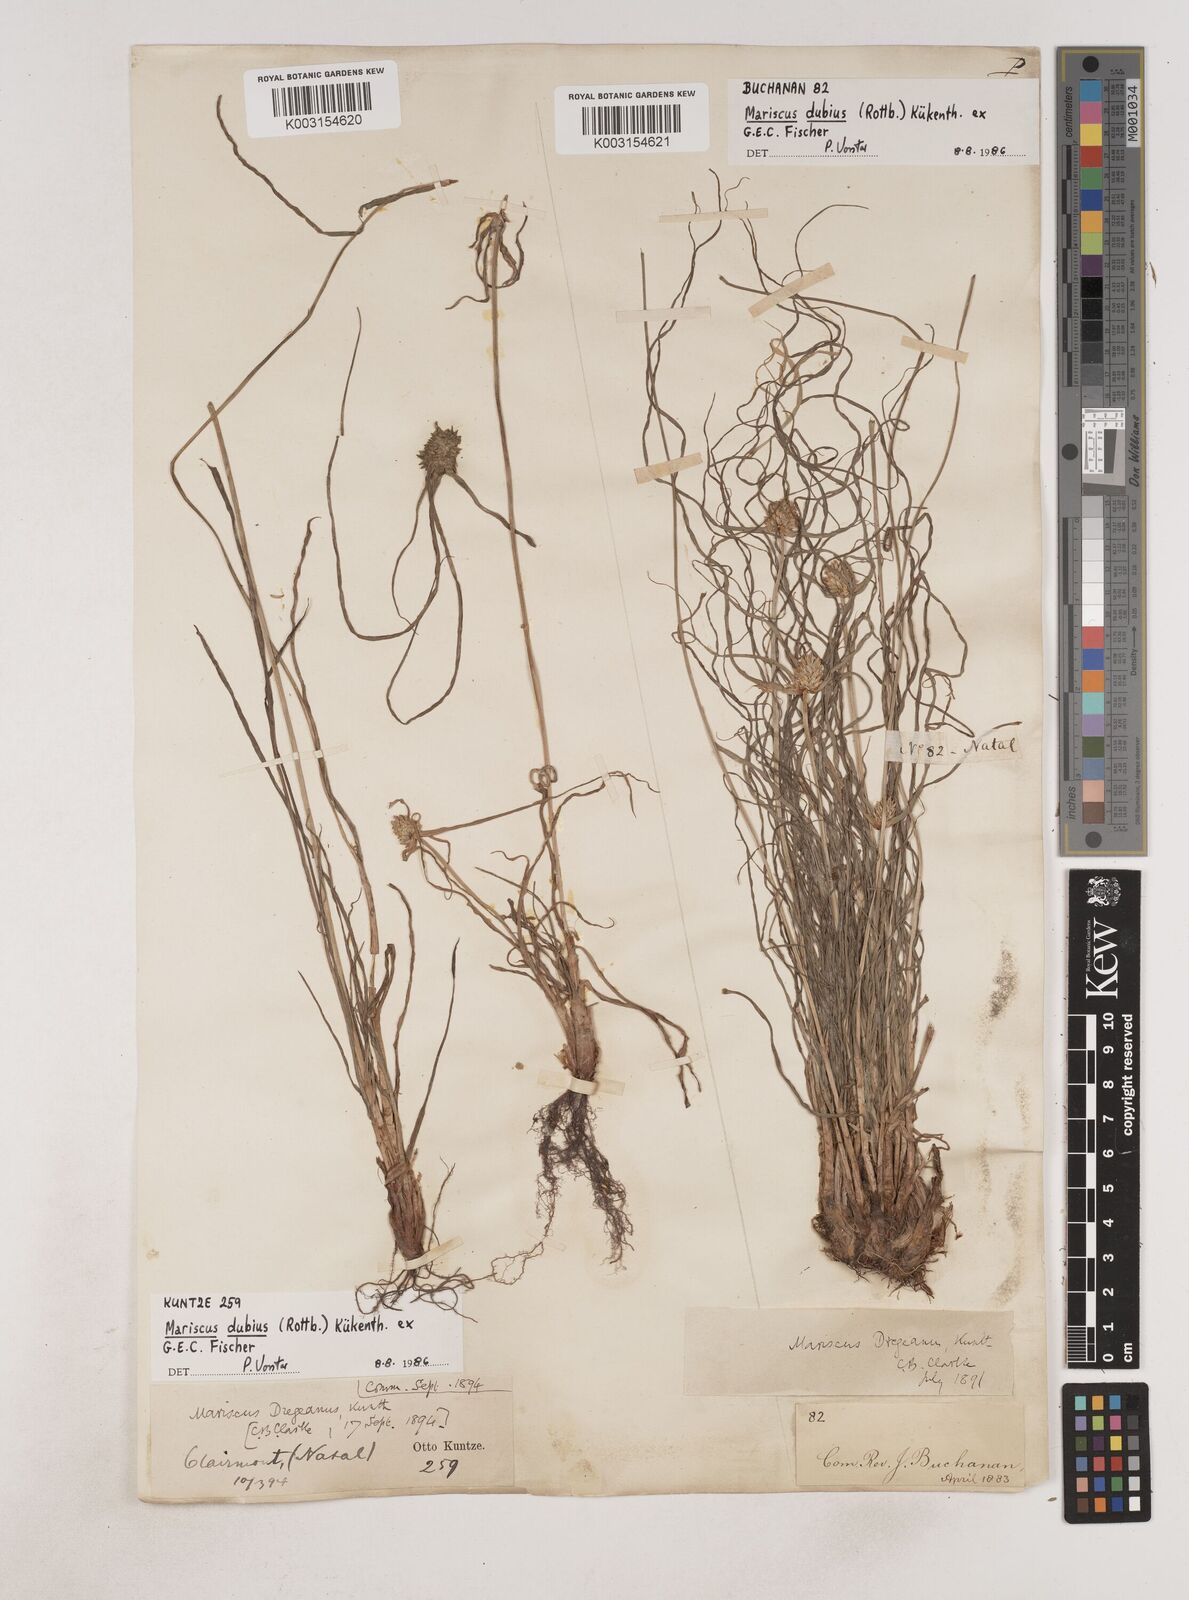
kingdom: Plantae
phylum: Tracheophyta
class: Liliopsida
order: Poales
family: Cyperaceae
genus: Cyperus
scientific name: Cyperus dubius
